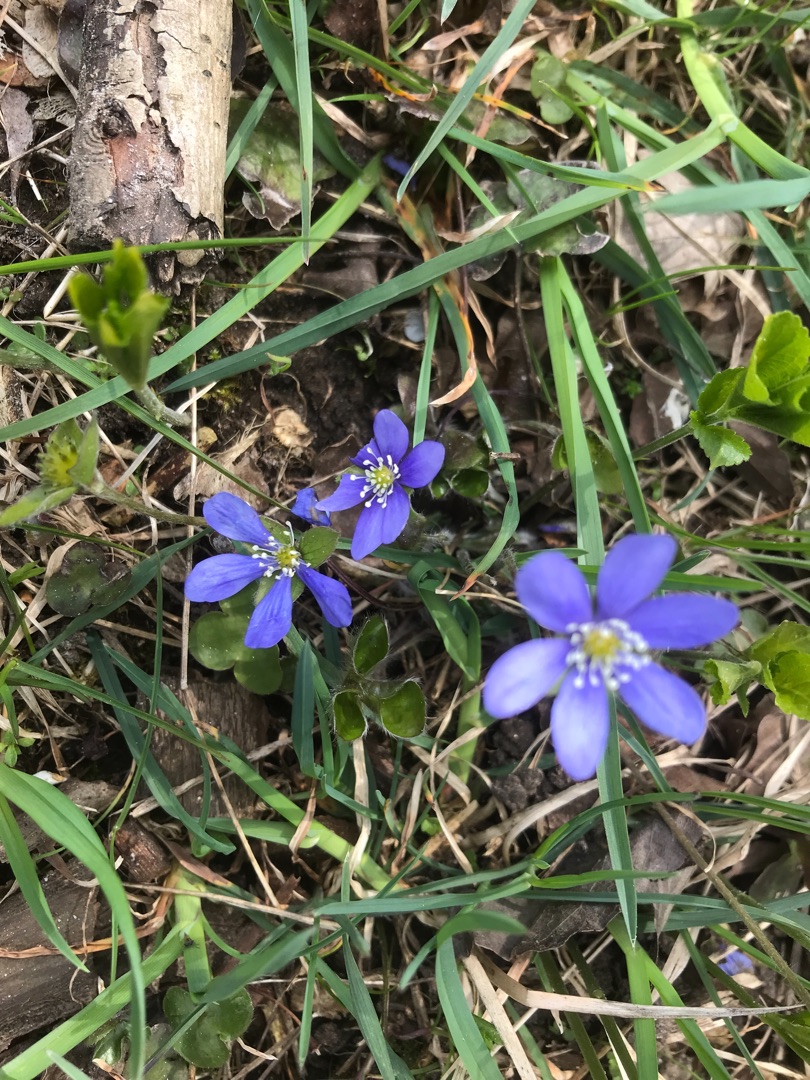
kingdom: Plantae
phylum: Tracheophyta
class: Magnoliopsida
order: Ranunculales
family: Ranunculaceae
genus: Hepatica
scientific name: Hepatica nobilis
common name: Blå anemone
